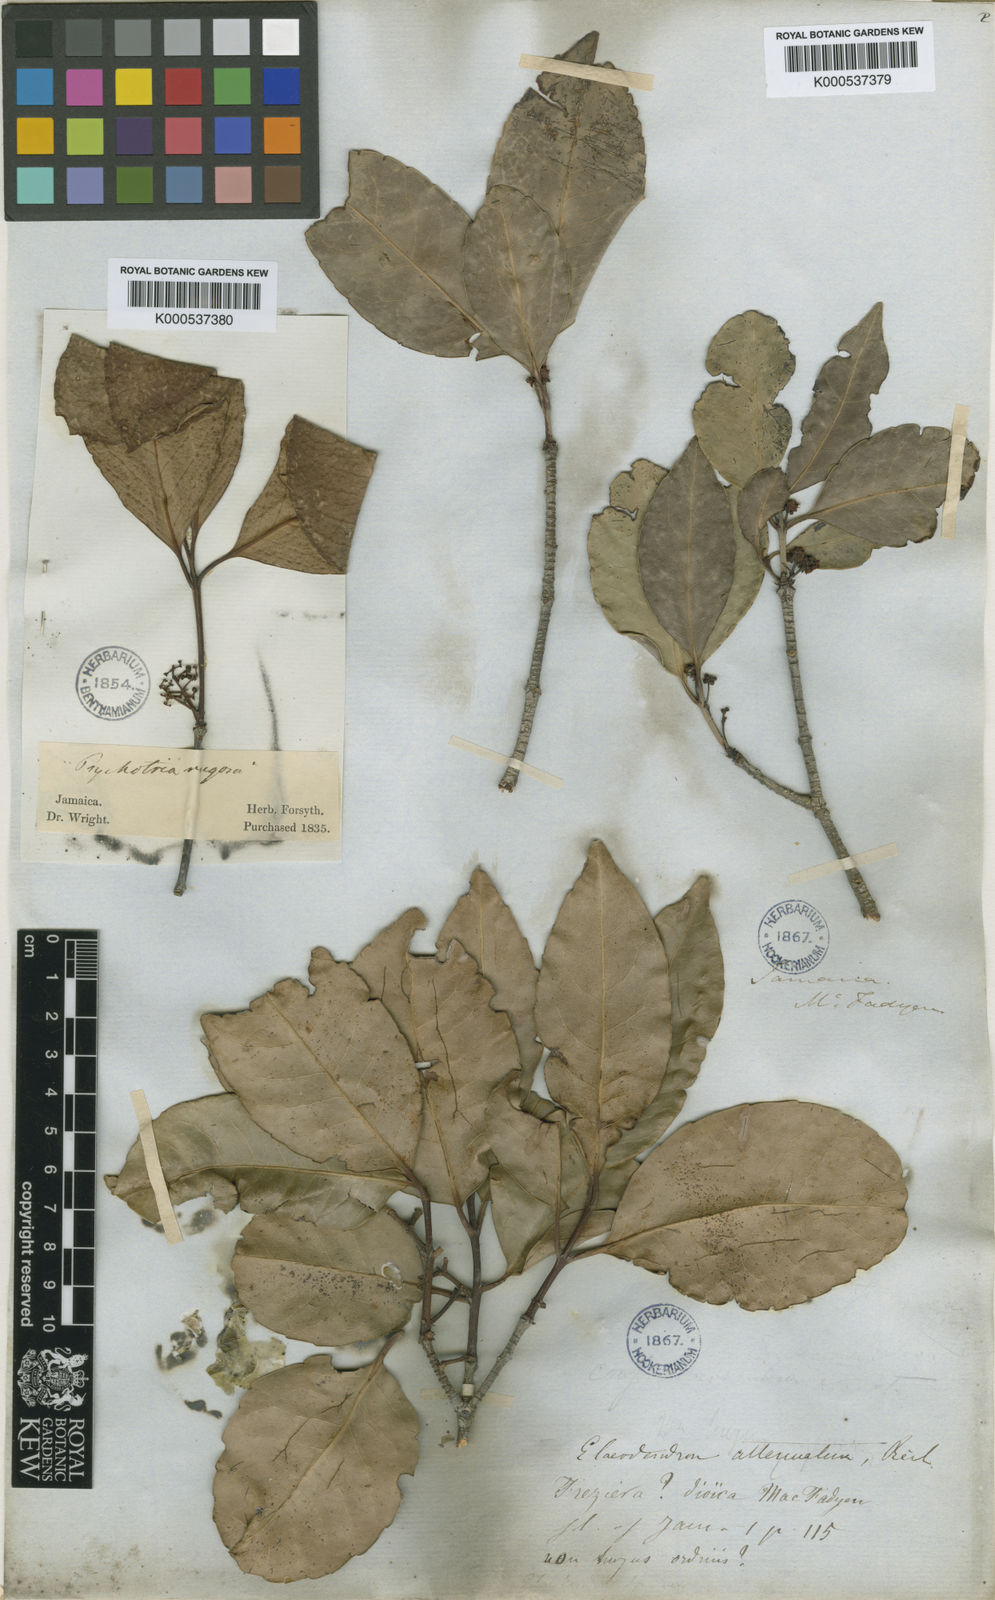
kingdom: Plantae
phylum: Tracheophyta
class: Magnoliopsida
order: Celastrales
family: Celastraceae
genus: Elaeodendron
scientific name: Elaeodendron xylocarpum
